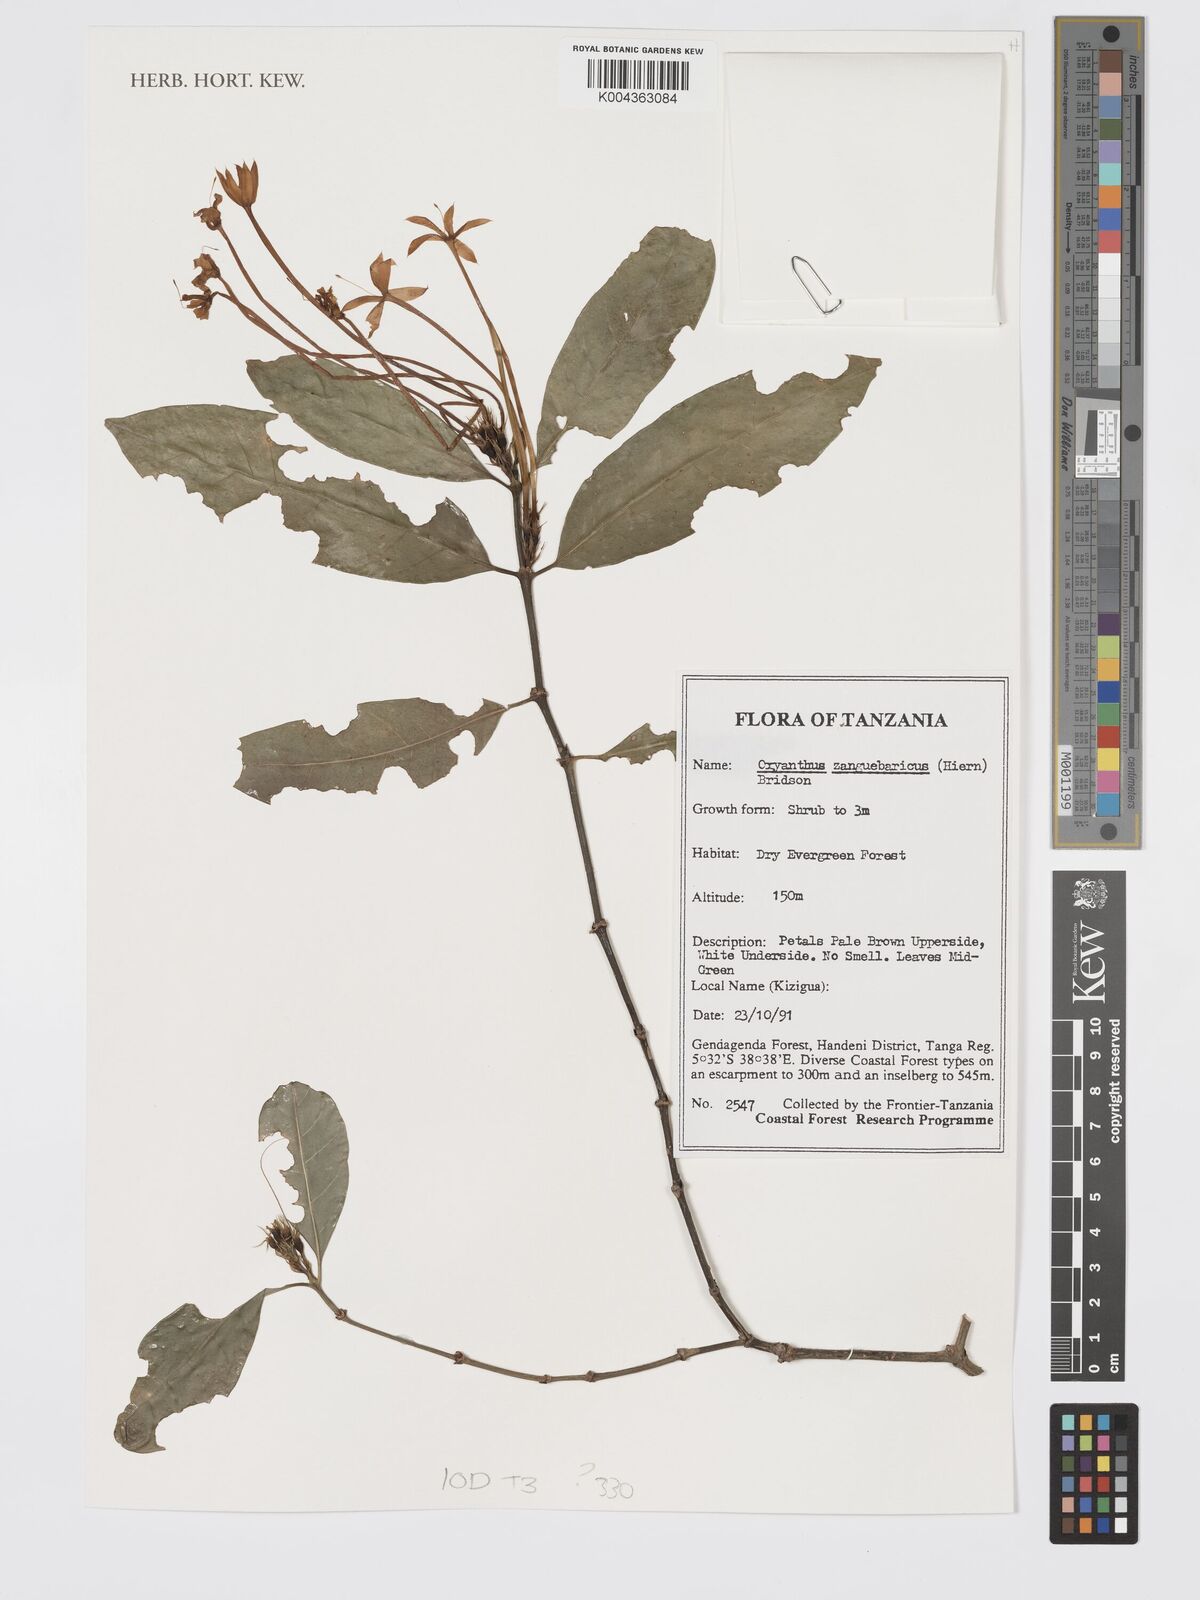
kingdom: Plantae
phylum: Tracheophyta
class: Magnoliopsida
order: Gentianales
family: Rubiaceae
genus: Oxyanthus
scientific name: Oxyanthus zanguebaricus
